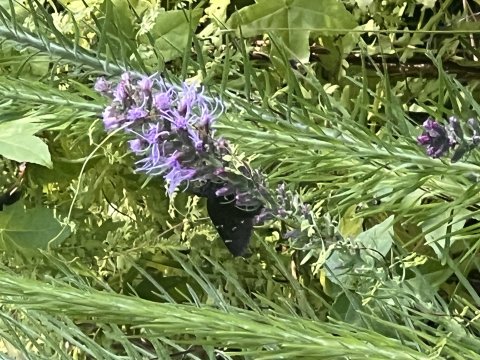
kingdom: Animalia
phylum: Arthropoda
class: Insecta
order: Lepidoptera
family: Hesperiidae
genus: Autochton
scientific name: Autochton
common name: Northern Cloudywing
